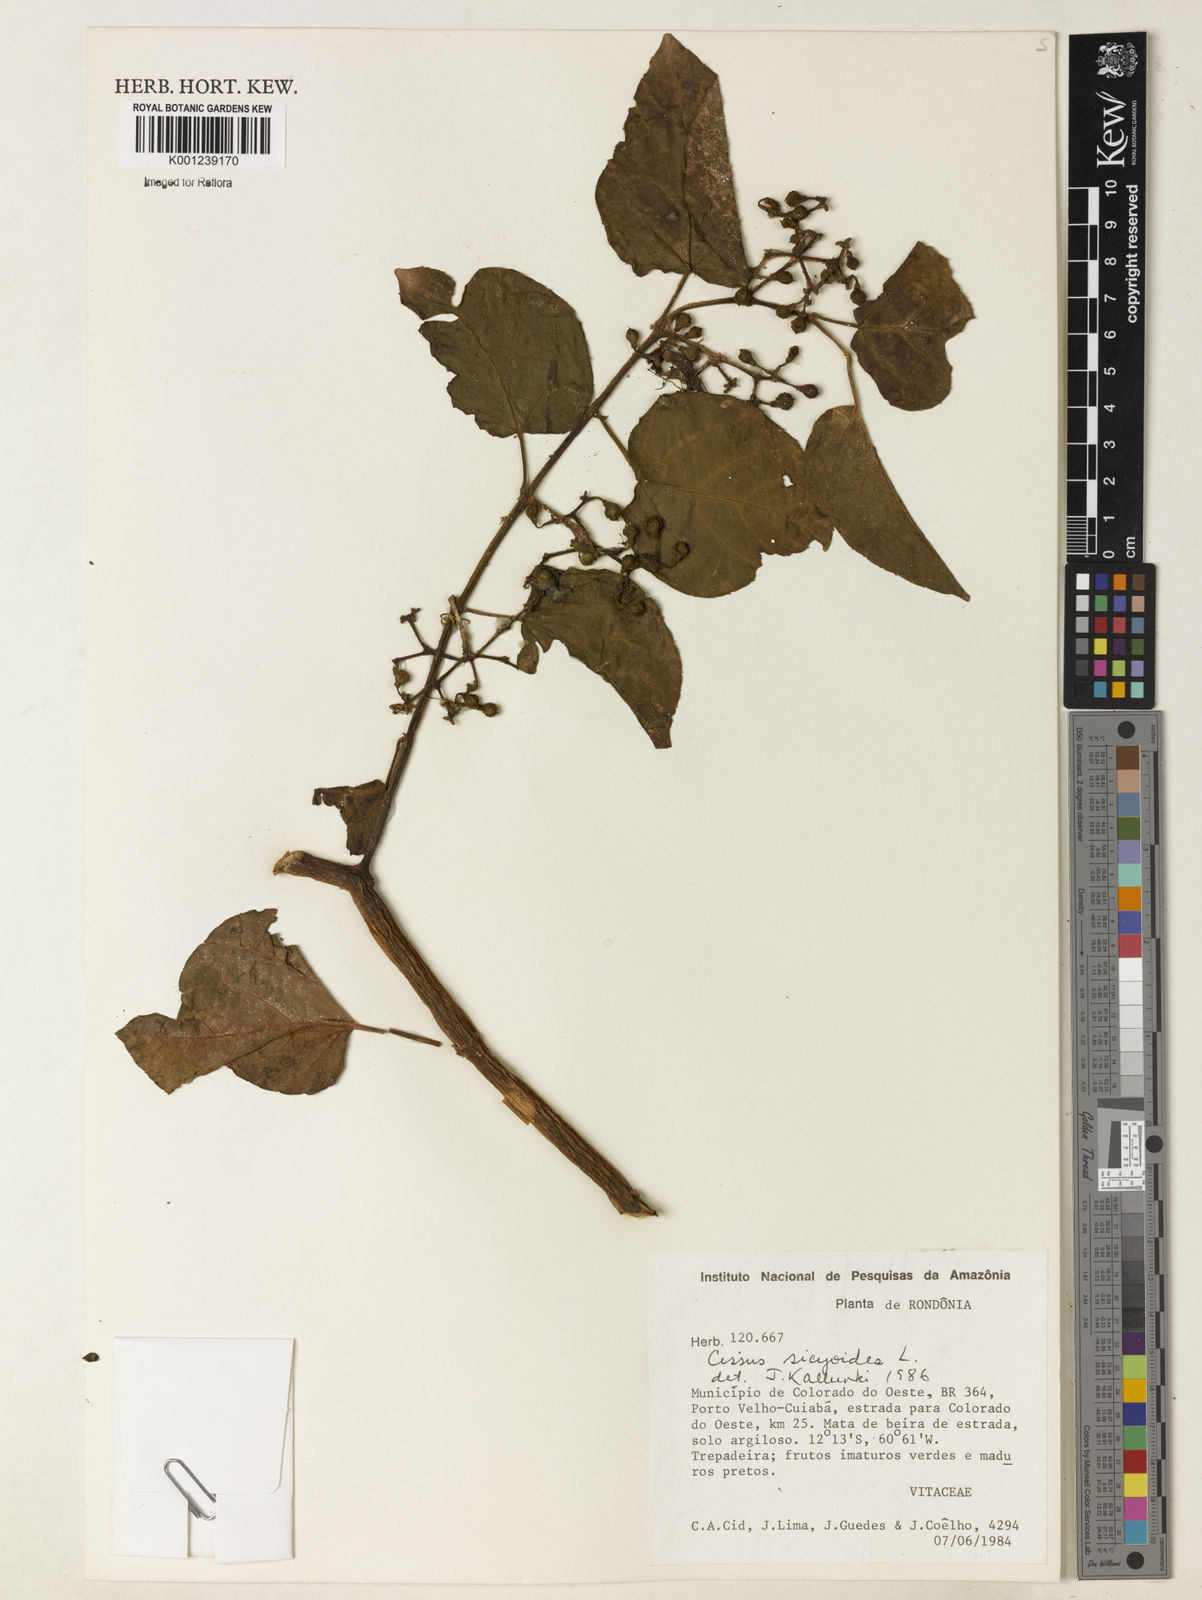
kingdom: Plantae
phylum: Tracheophyta
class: Magnoliopsida
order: Vitales
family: Vitaceae
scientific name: Vitaceae
